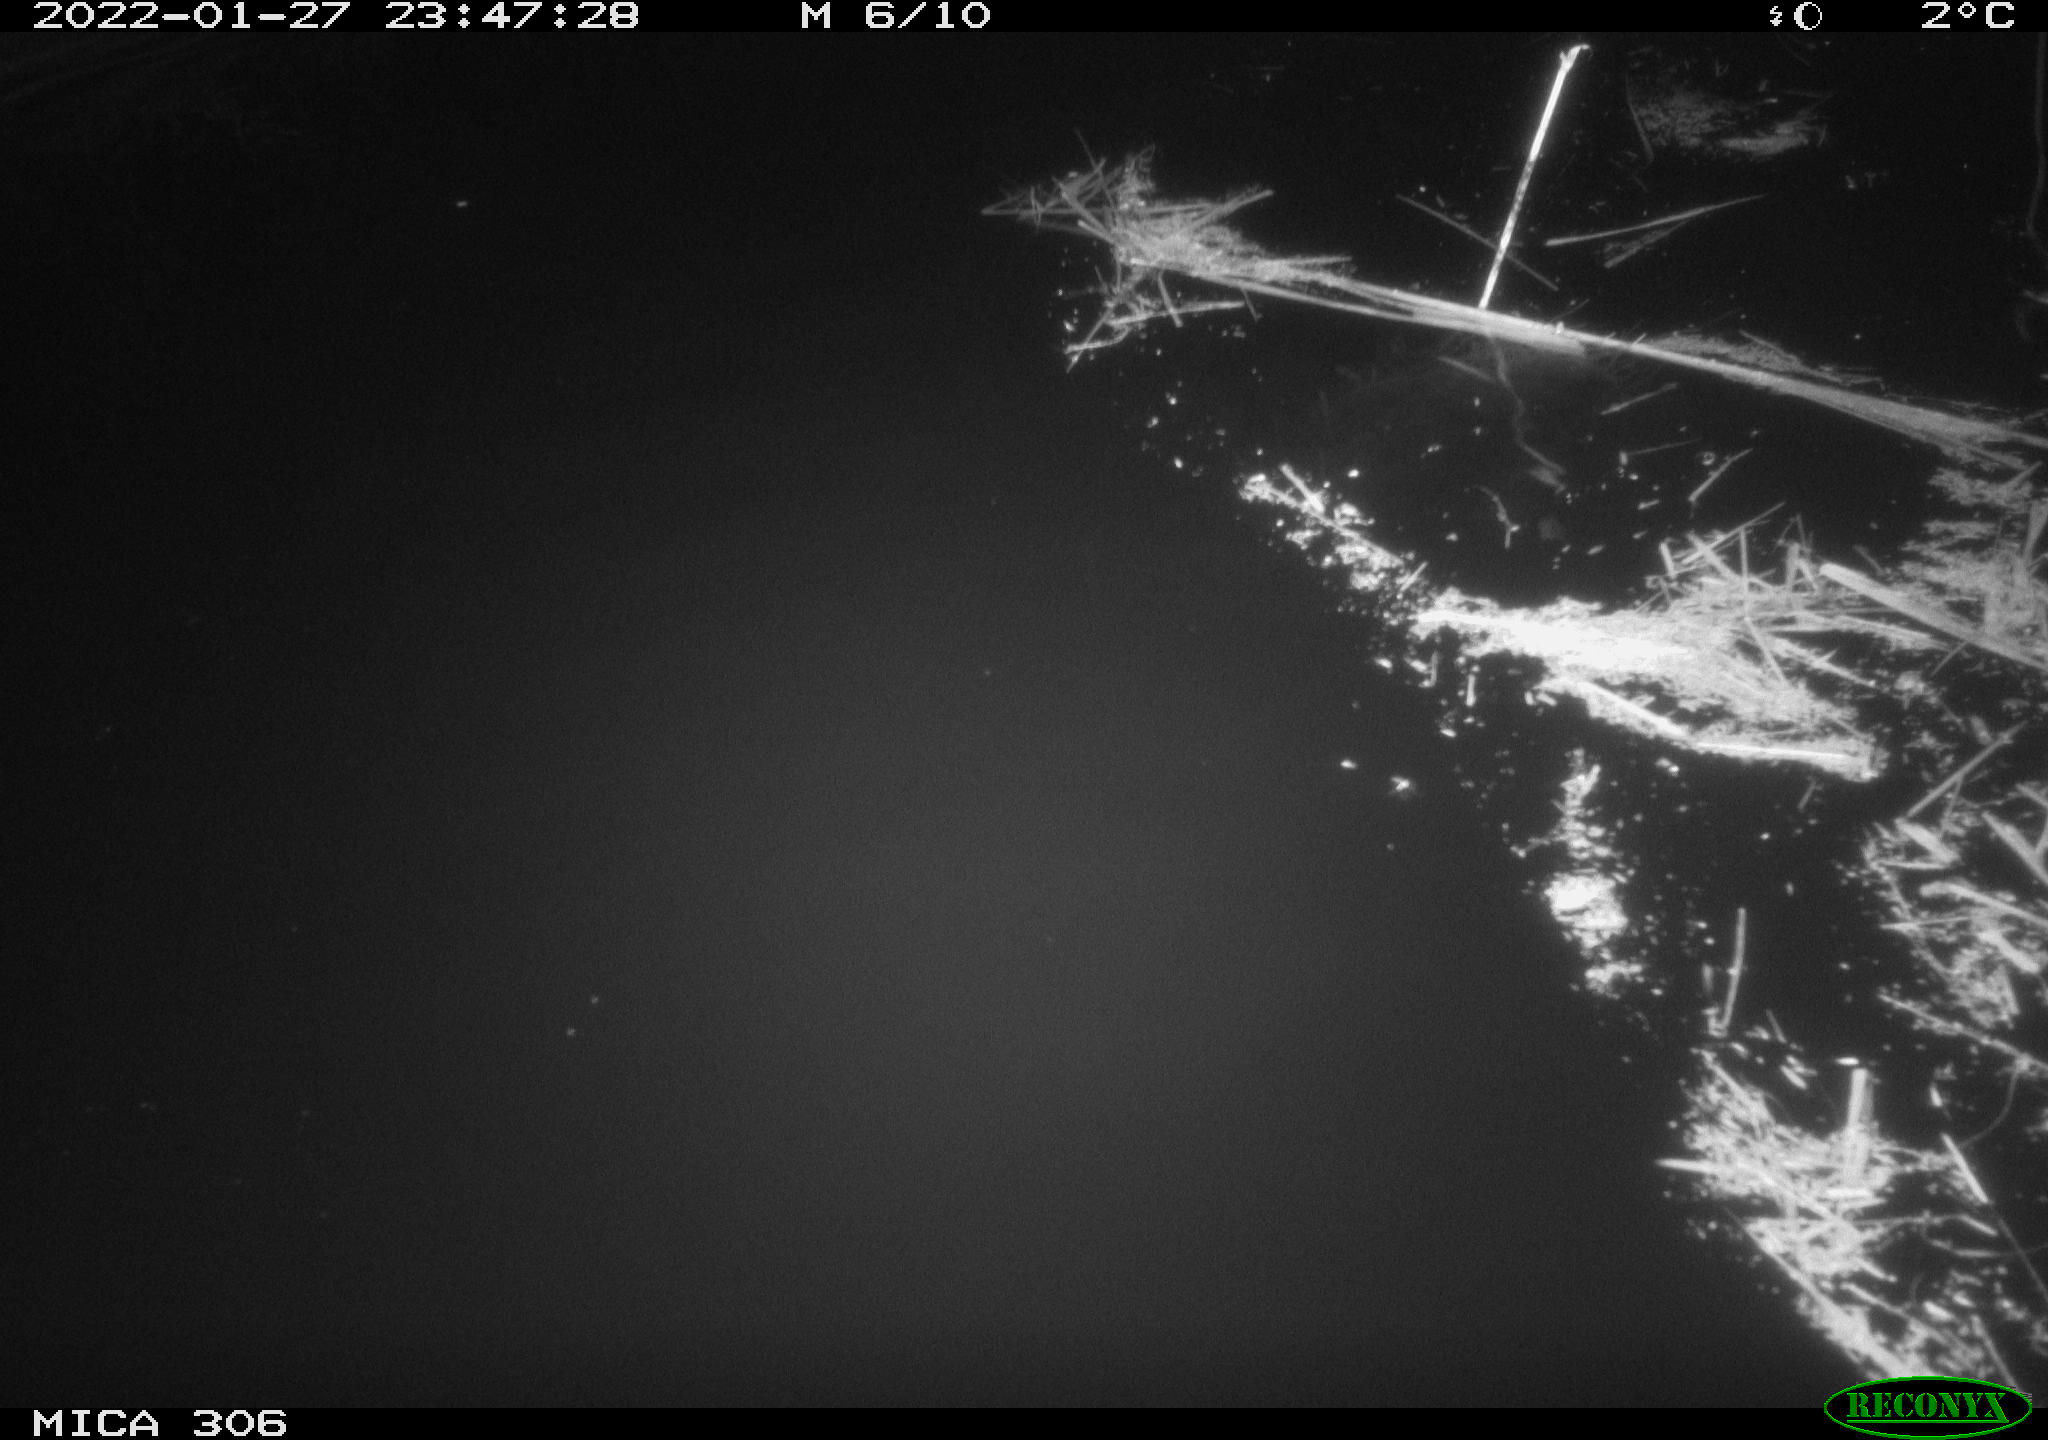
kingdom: Animalia
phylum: Chordata
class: Mammalia
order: Rodentia
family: Cricetidae
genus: Ondatra
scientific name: Ondatra zibethicus
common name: Muskrat
